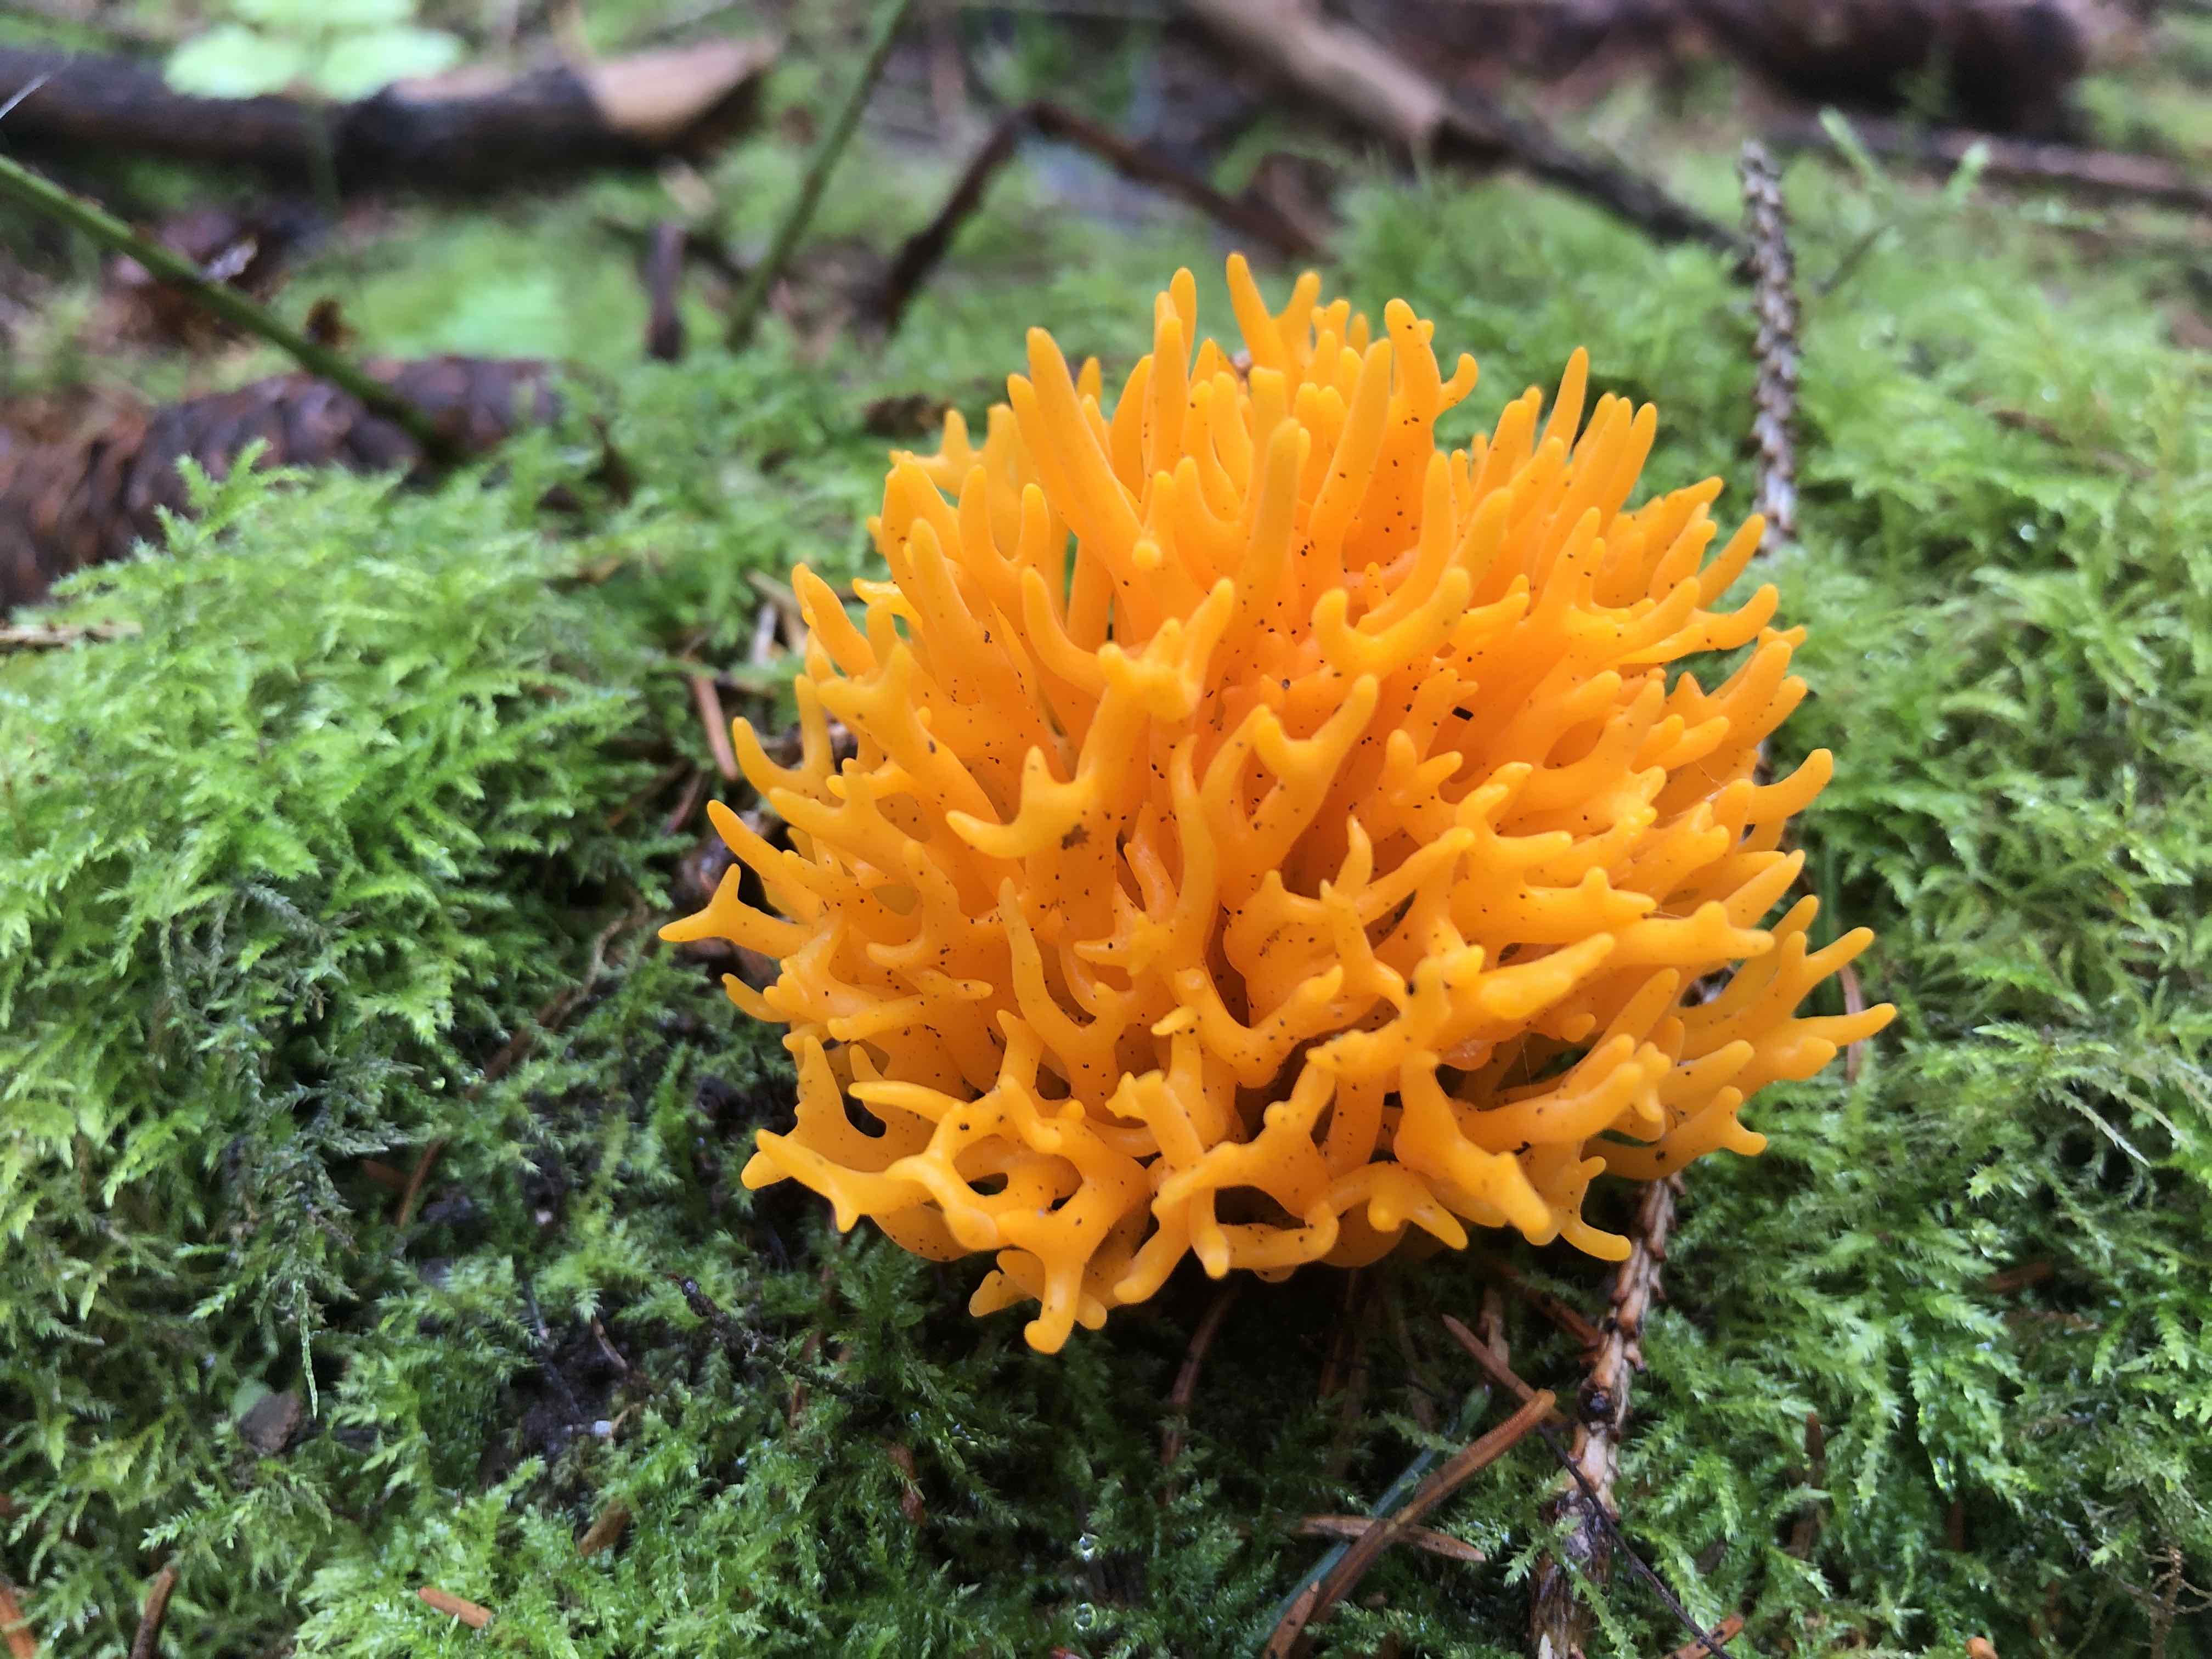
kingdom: Fungi
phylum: Basidiomycota
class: Dacrymycetes
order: Dacrymycetales
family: Dacrymycetaceae
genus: Calocera
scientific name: Calocera viscosa
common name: almindelig guldgaffel
